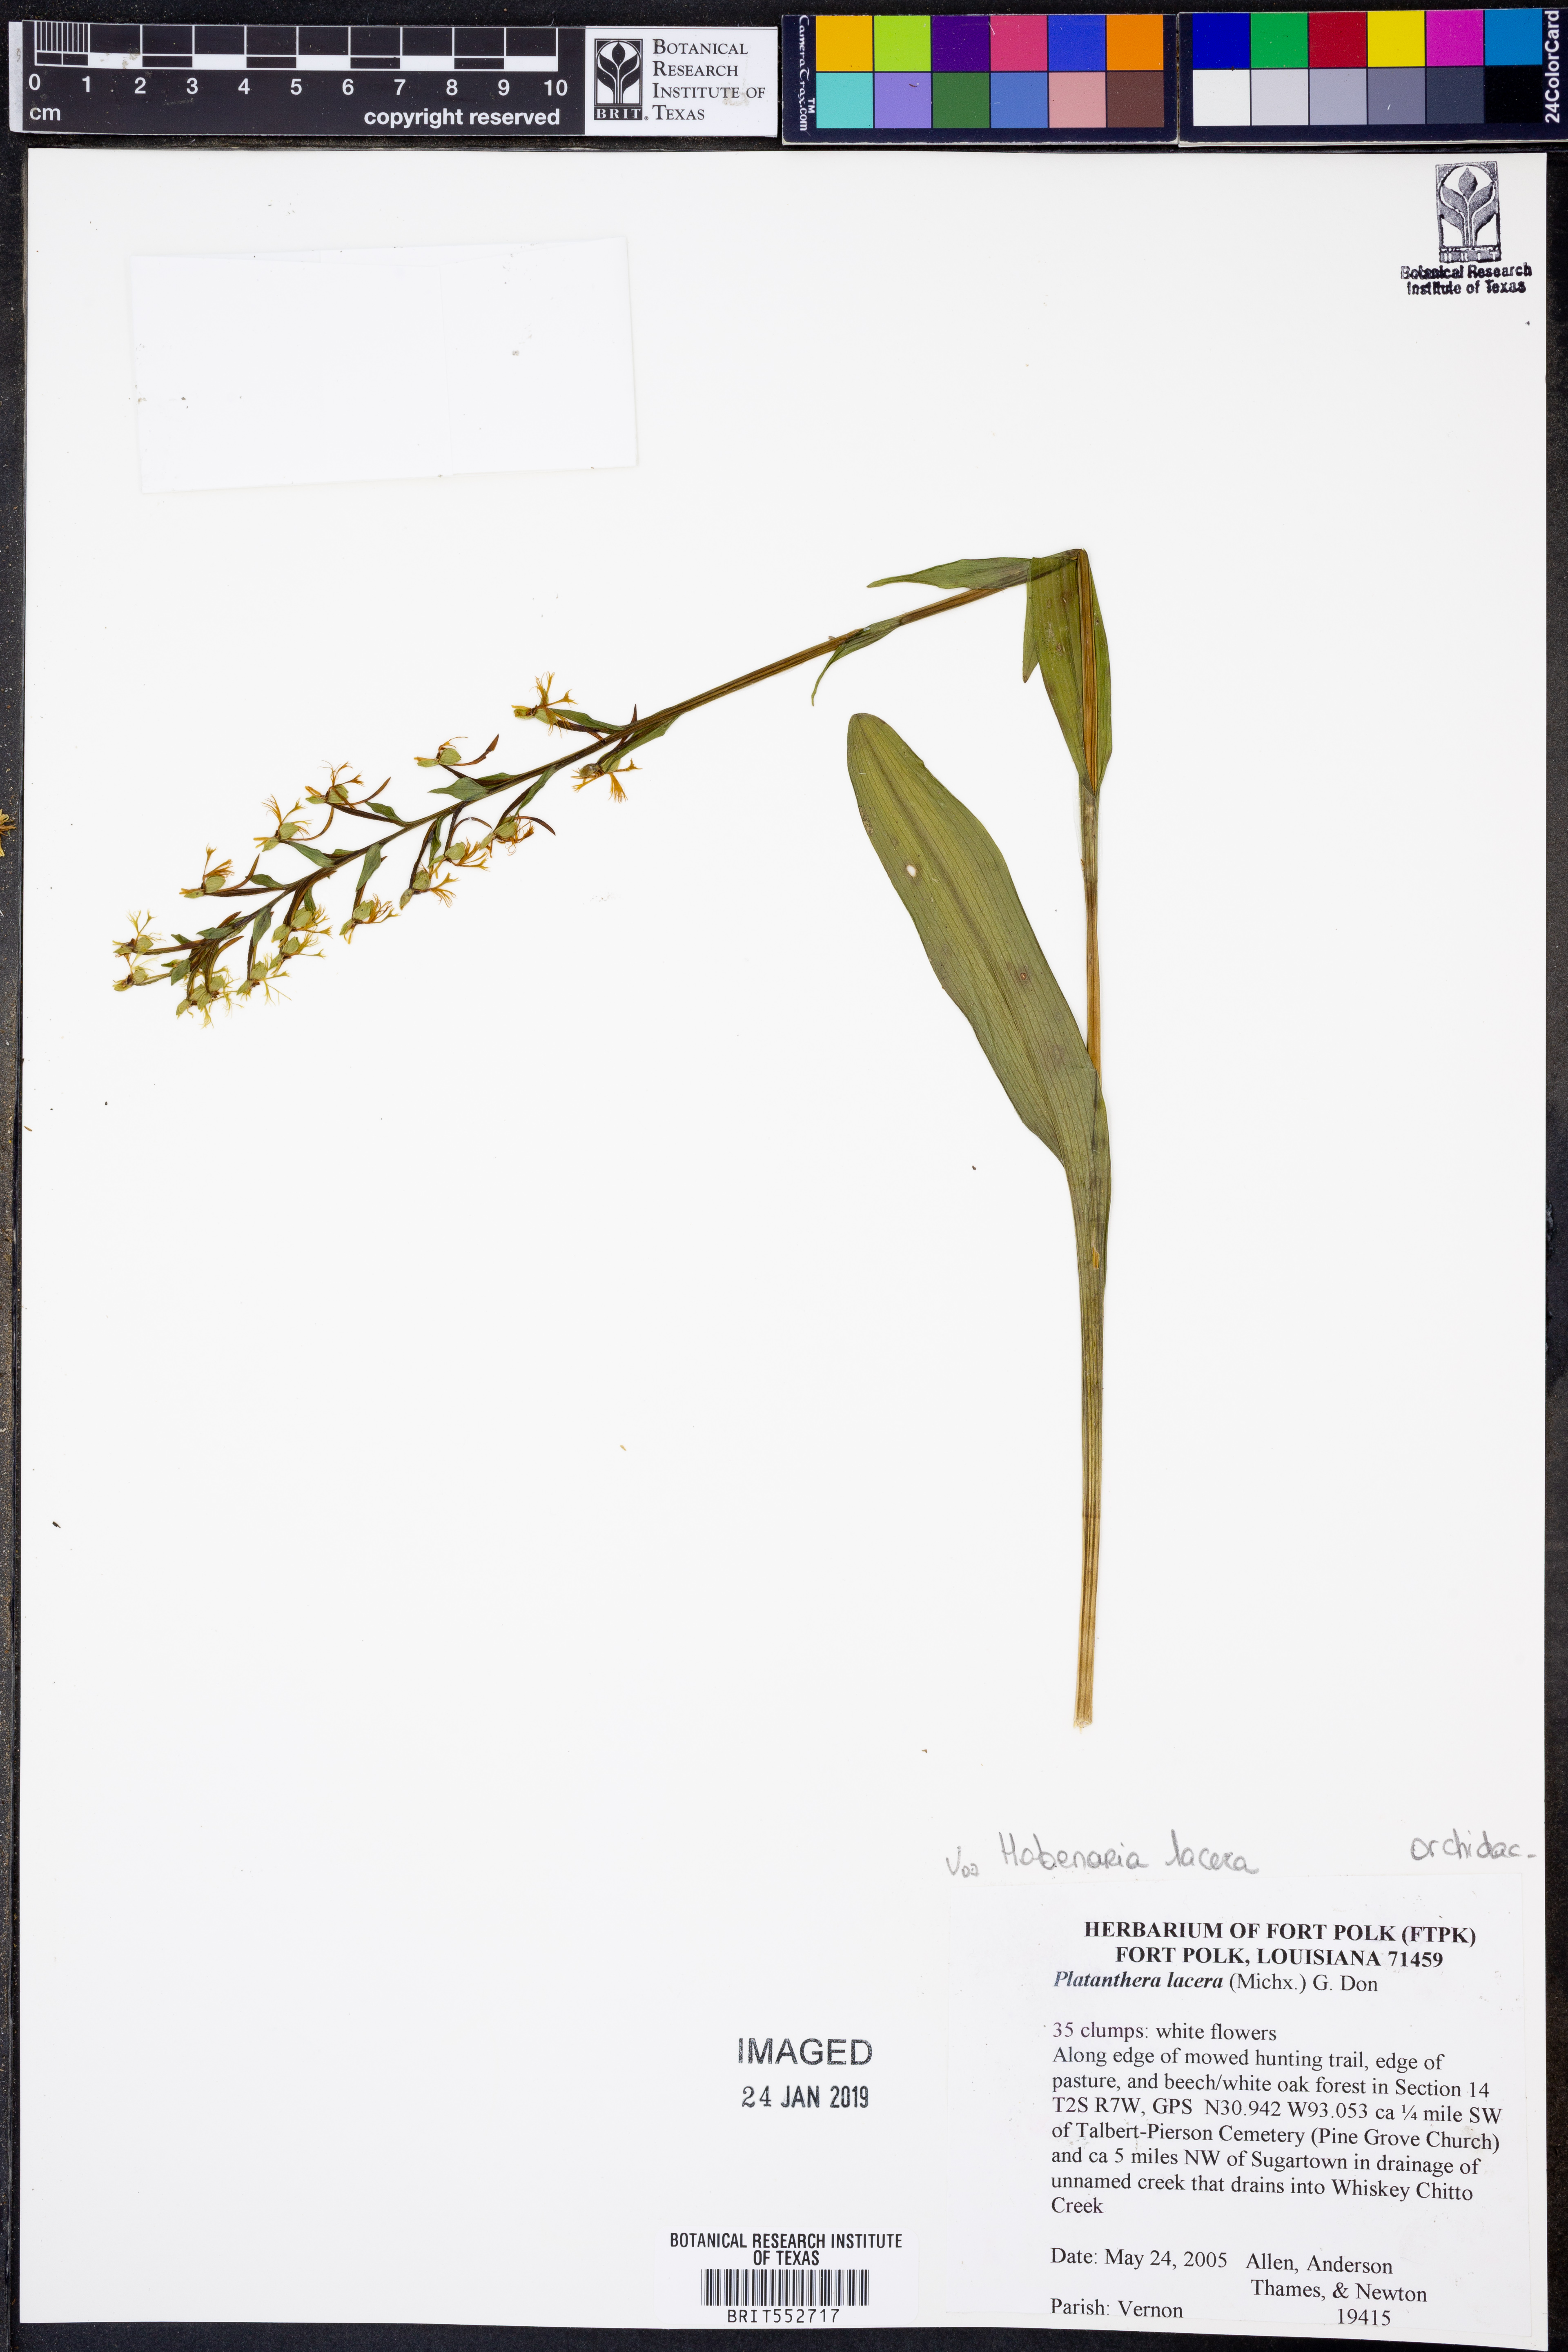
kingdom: Plantae
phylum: Tracheophyta
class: Liliopsida
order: Asparagales
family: Orchidaceae
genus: Platanthera
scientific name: Platanthera lacera
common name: Green fringed orchid
